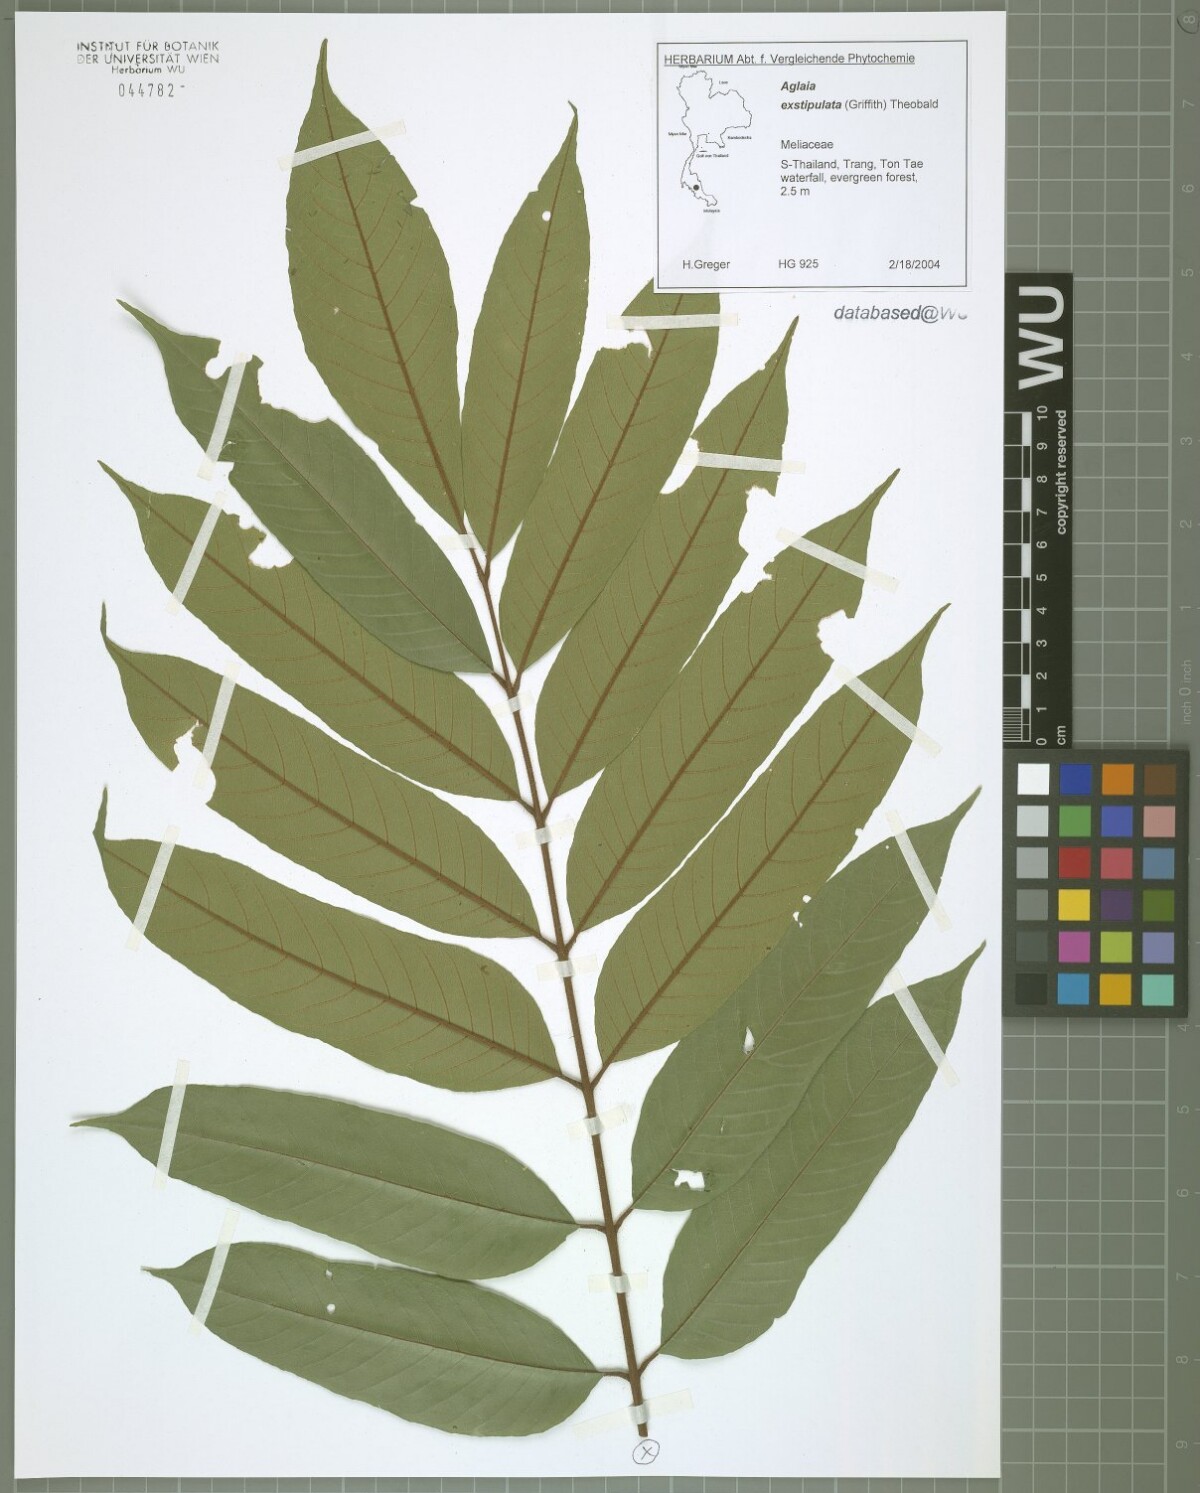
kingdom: Plantae
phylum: Tracheophyta
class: Magnoliopsida
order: Sapindales
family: Meliaceae
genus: Aglaia
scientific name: Aglaia exstipulata
